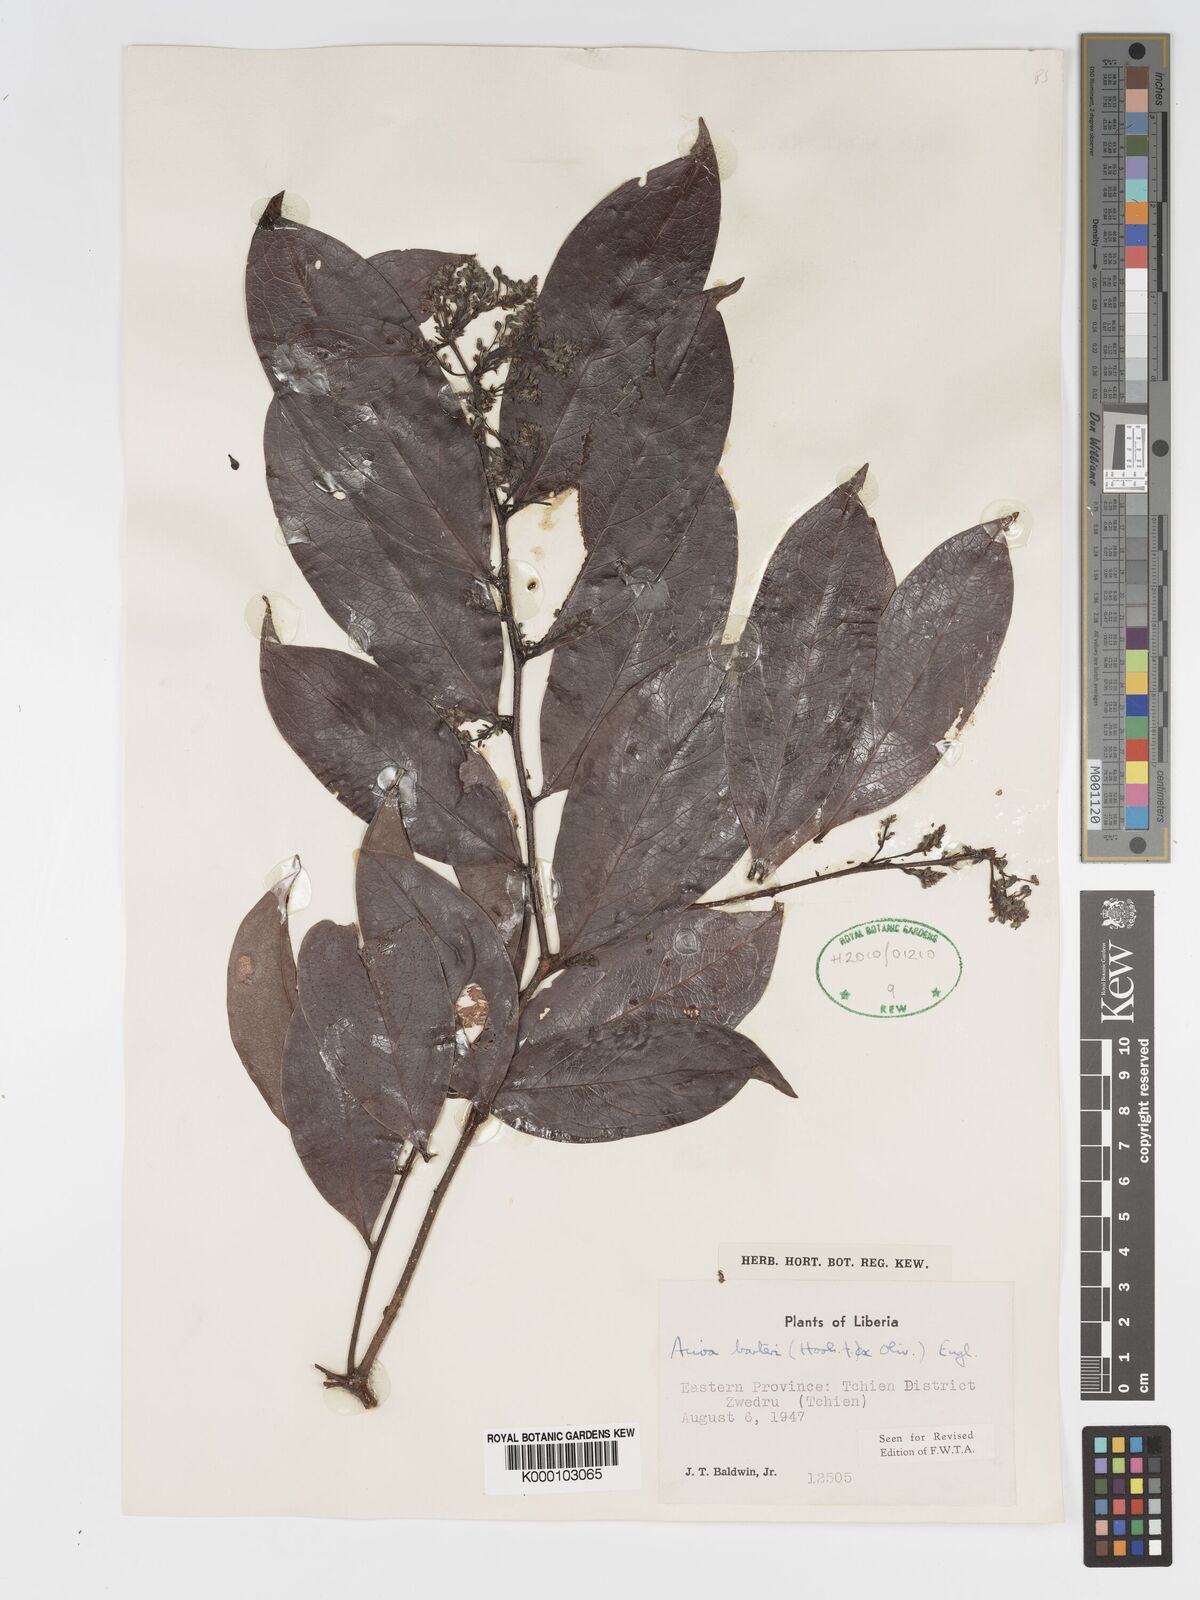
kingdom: Plantae
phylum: Tracheophyta
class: Magnoliopsida
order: Malpighiales
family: Chrysobalanaceae
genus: Dactyladenia
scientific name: Dactyladenia barteri
